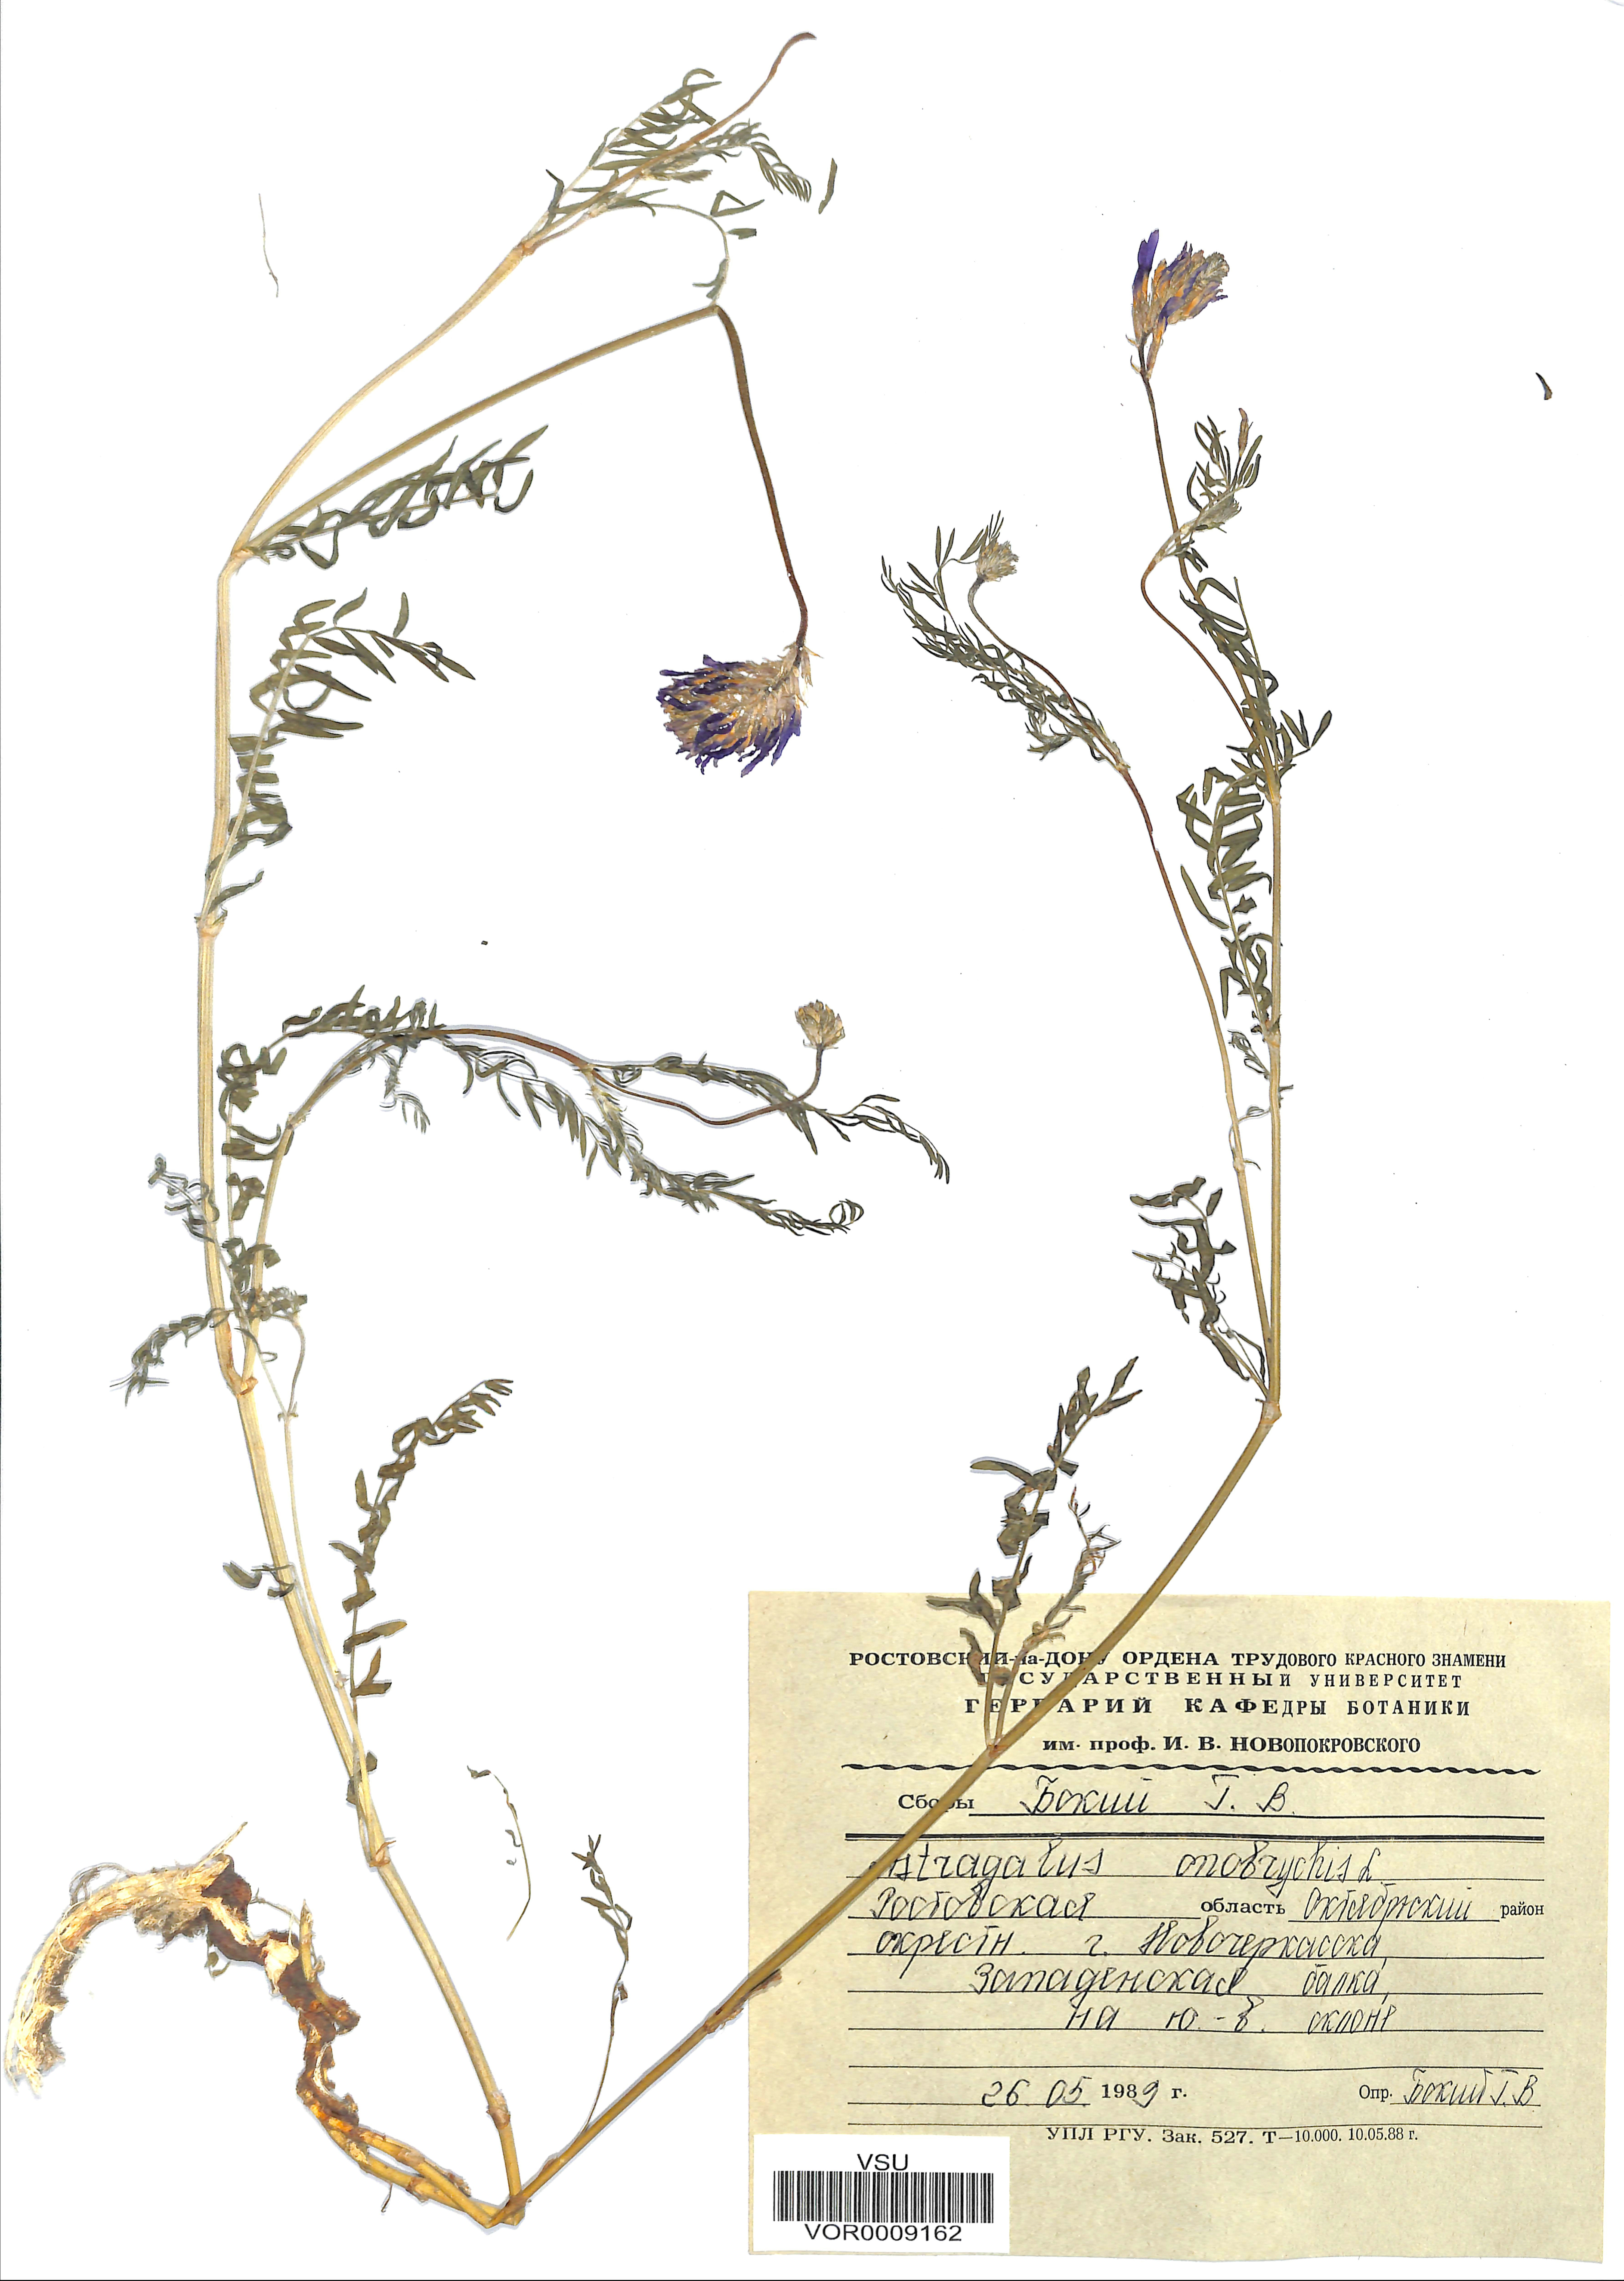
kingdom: Plantae
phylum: Tracheophyta
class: Magnoliopsida
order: Fabales
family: Fabaceae
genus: Astragalus
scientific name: Astragalus onobrychis
